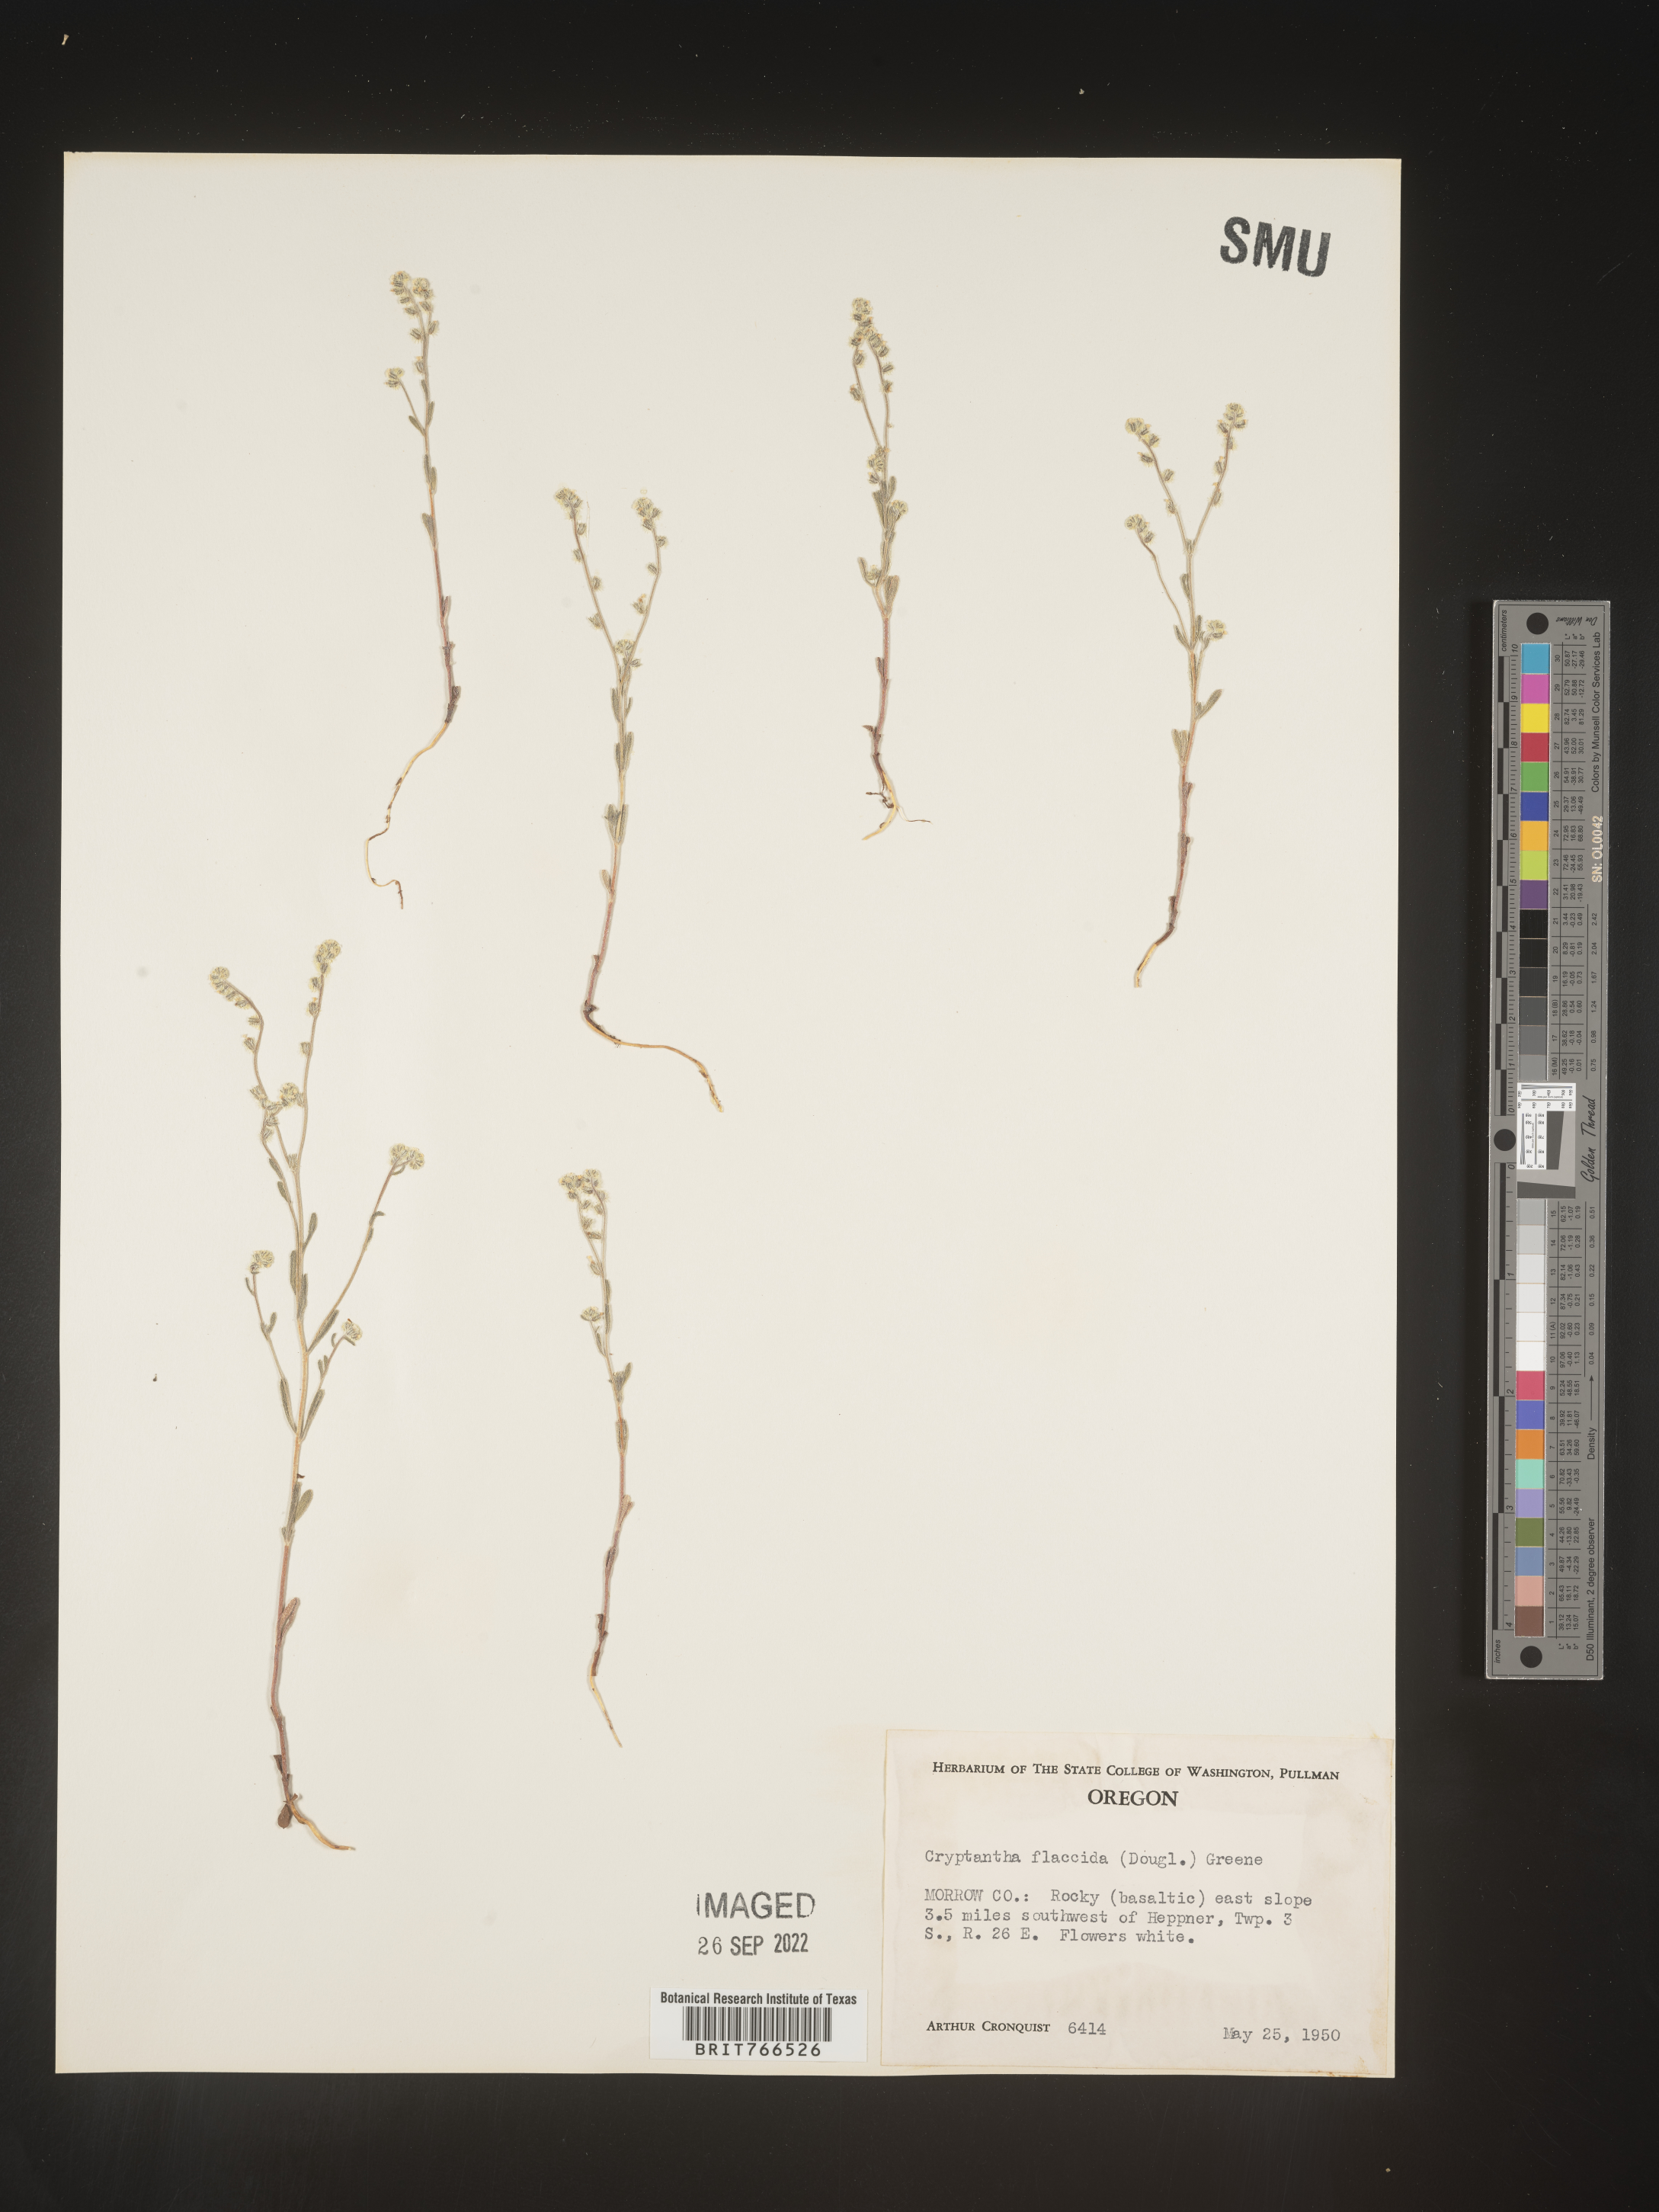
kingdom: Plantae
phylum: Tracheophyta
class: Magnoliopsida
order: Boraginales
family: Boraginaceae
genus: Cryptantha
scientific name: Cryptantha flaccida
